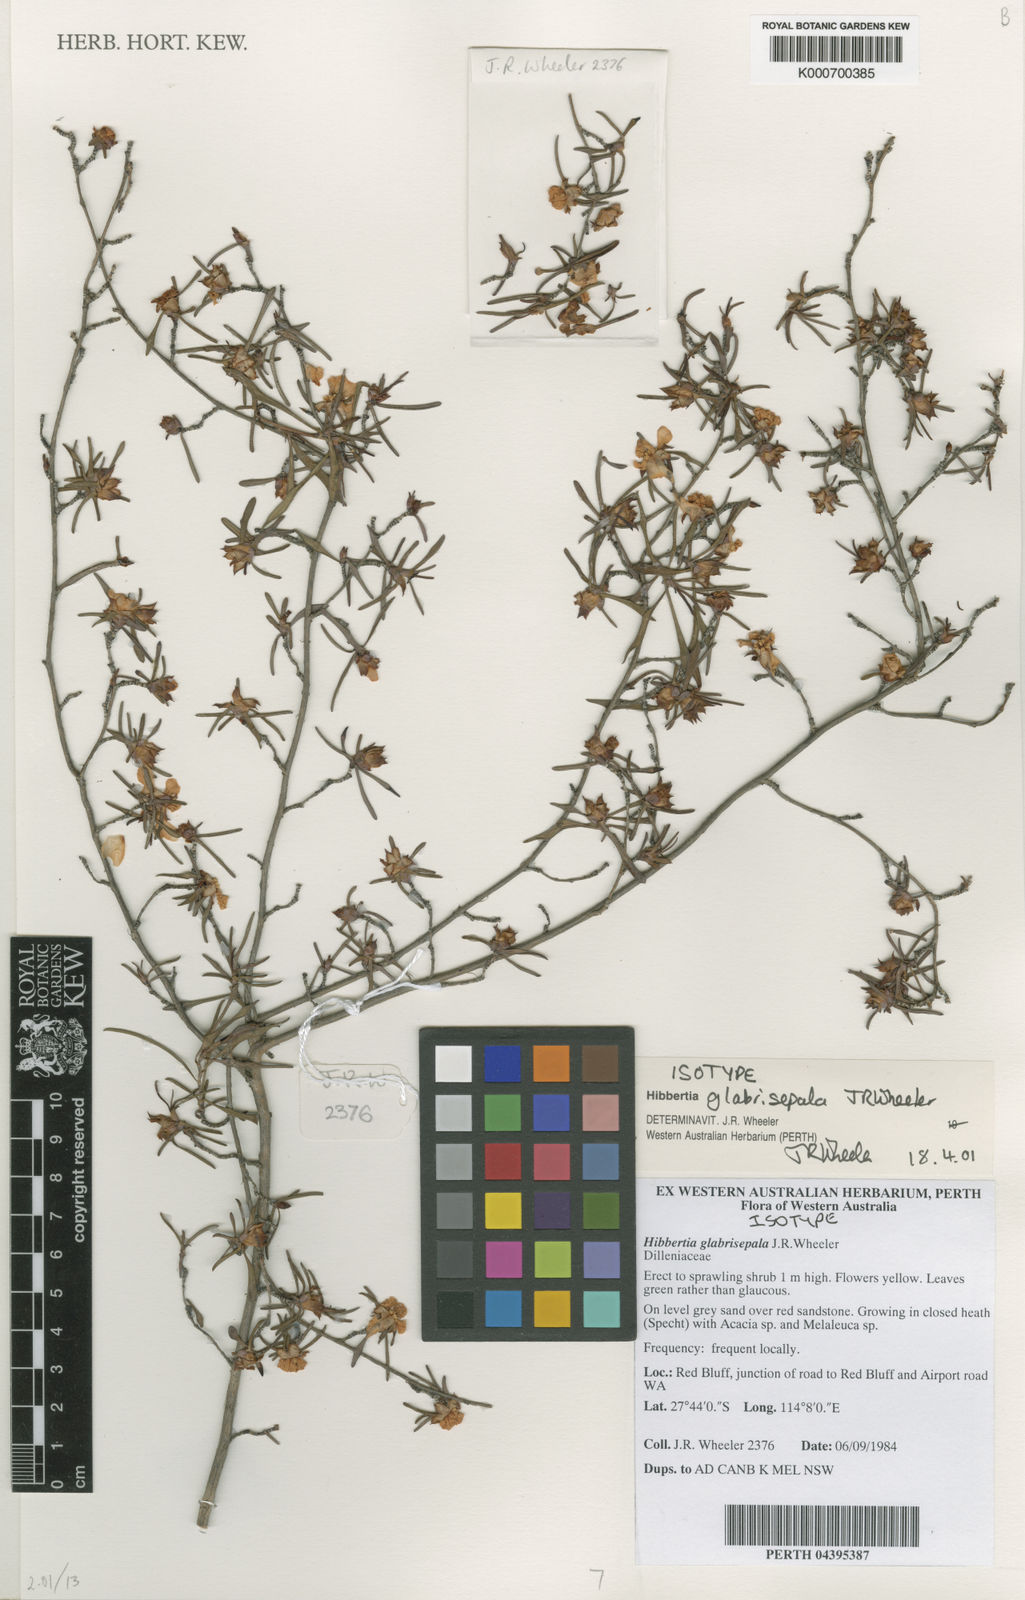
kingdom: Plantae
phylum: Tracheophyta
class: Magnoliopsida
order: Dilleniales
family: Dilleniaceae
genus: Hibbertia
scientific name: Hibbertia glabrisepala
